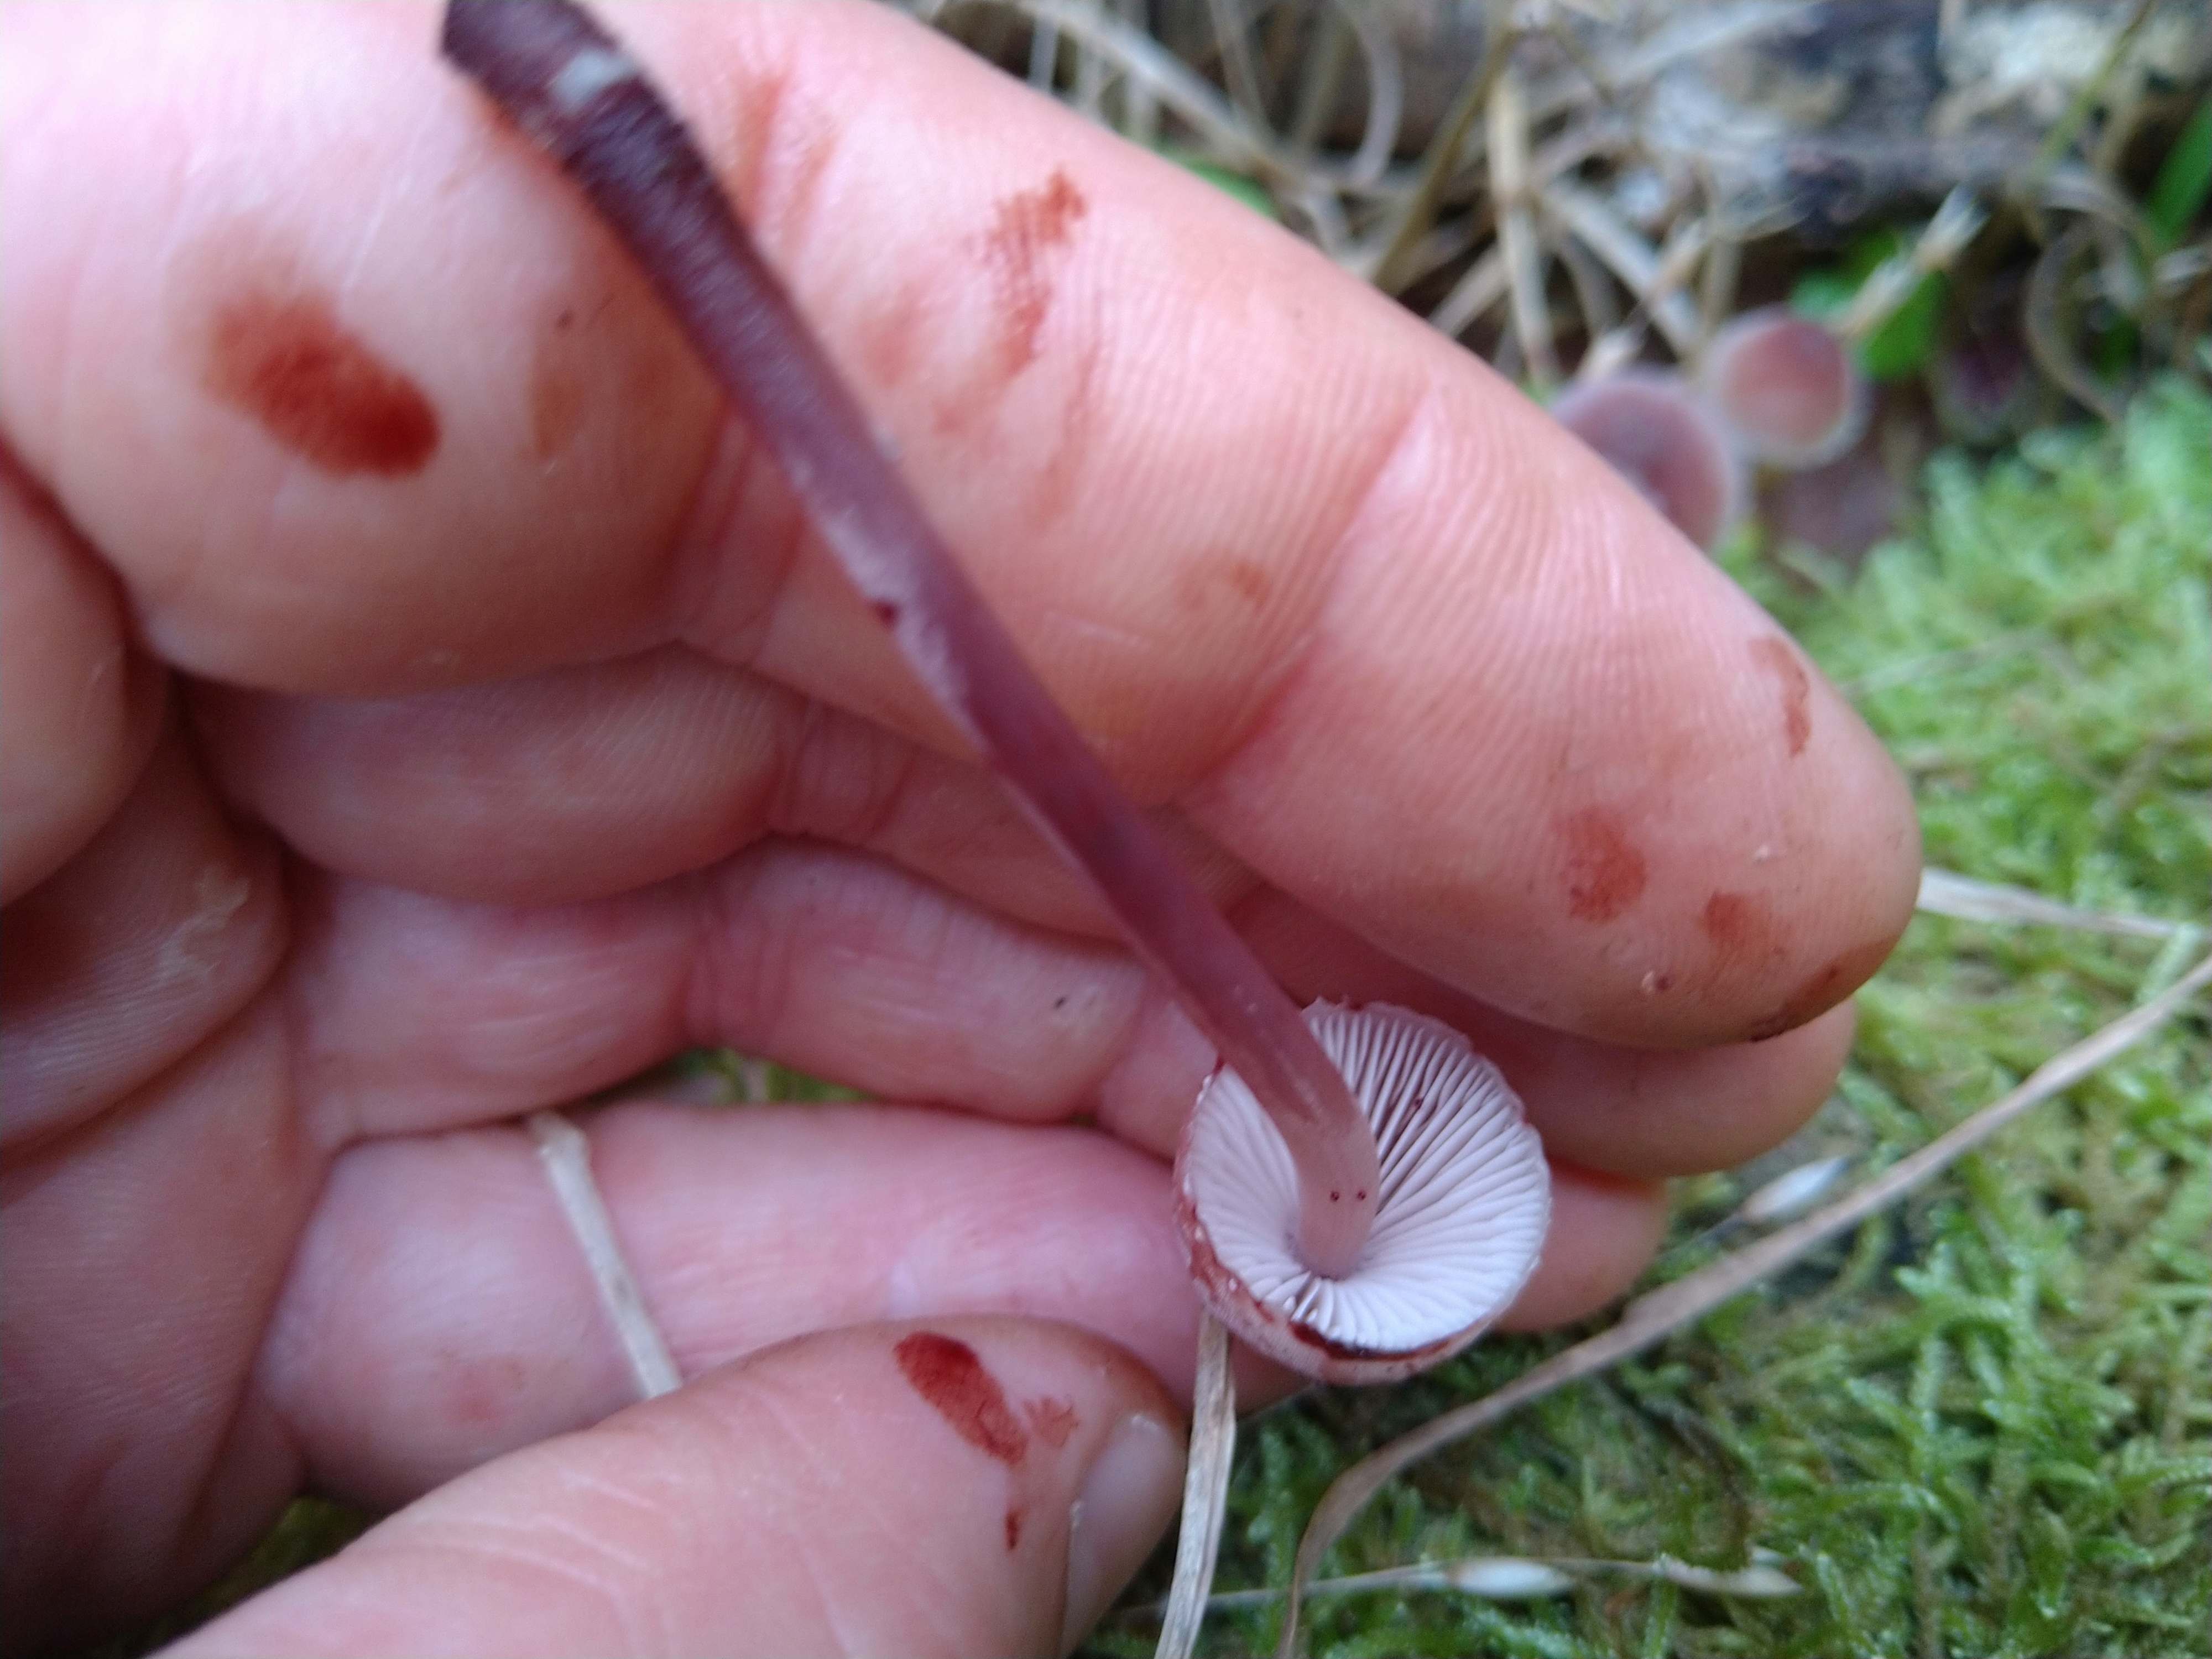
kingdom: Fungi
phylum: Basidiomycota
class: Agaricomycetes
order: Agaricales
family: Mycenaceae
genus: Mycena
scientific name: Mycena haematopus
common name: blødende huesvamp
